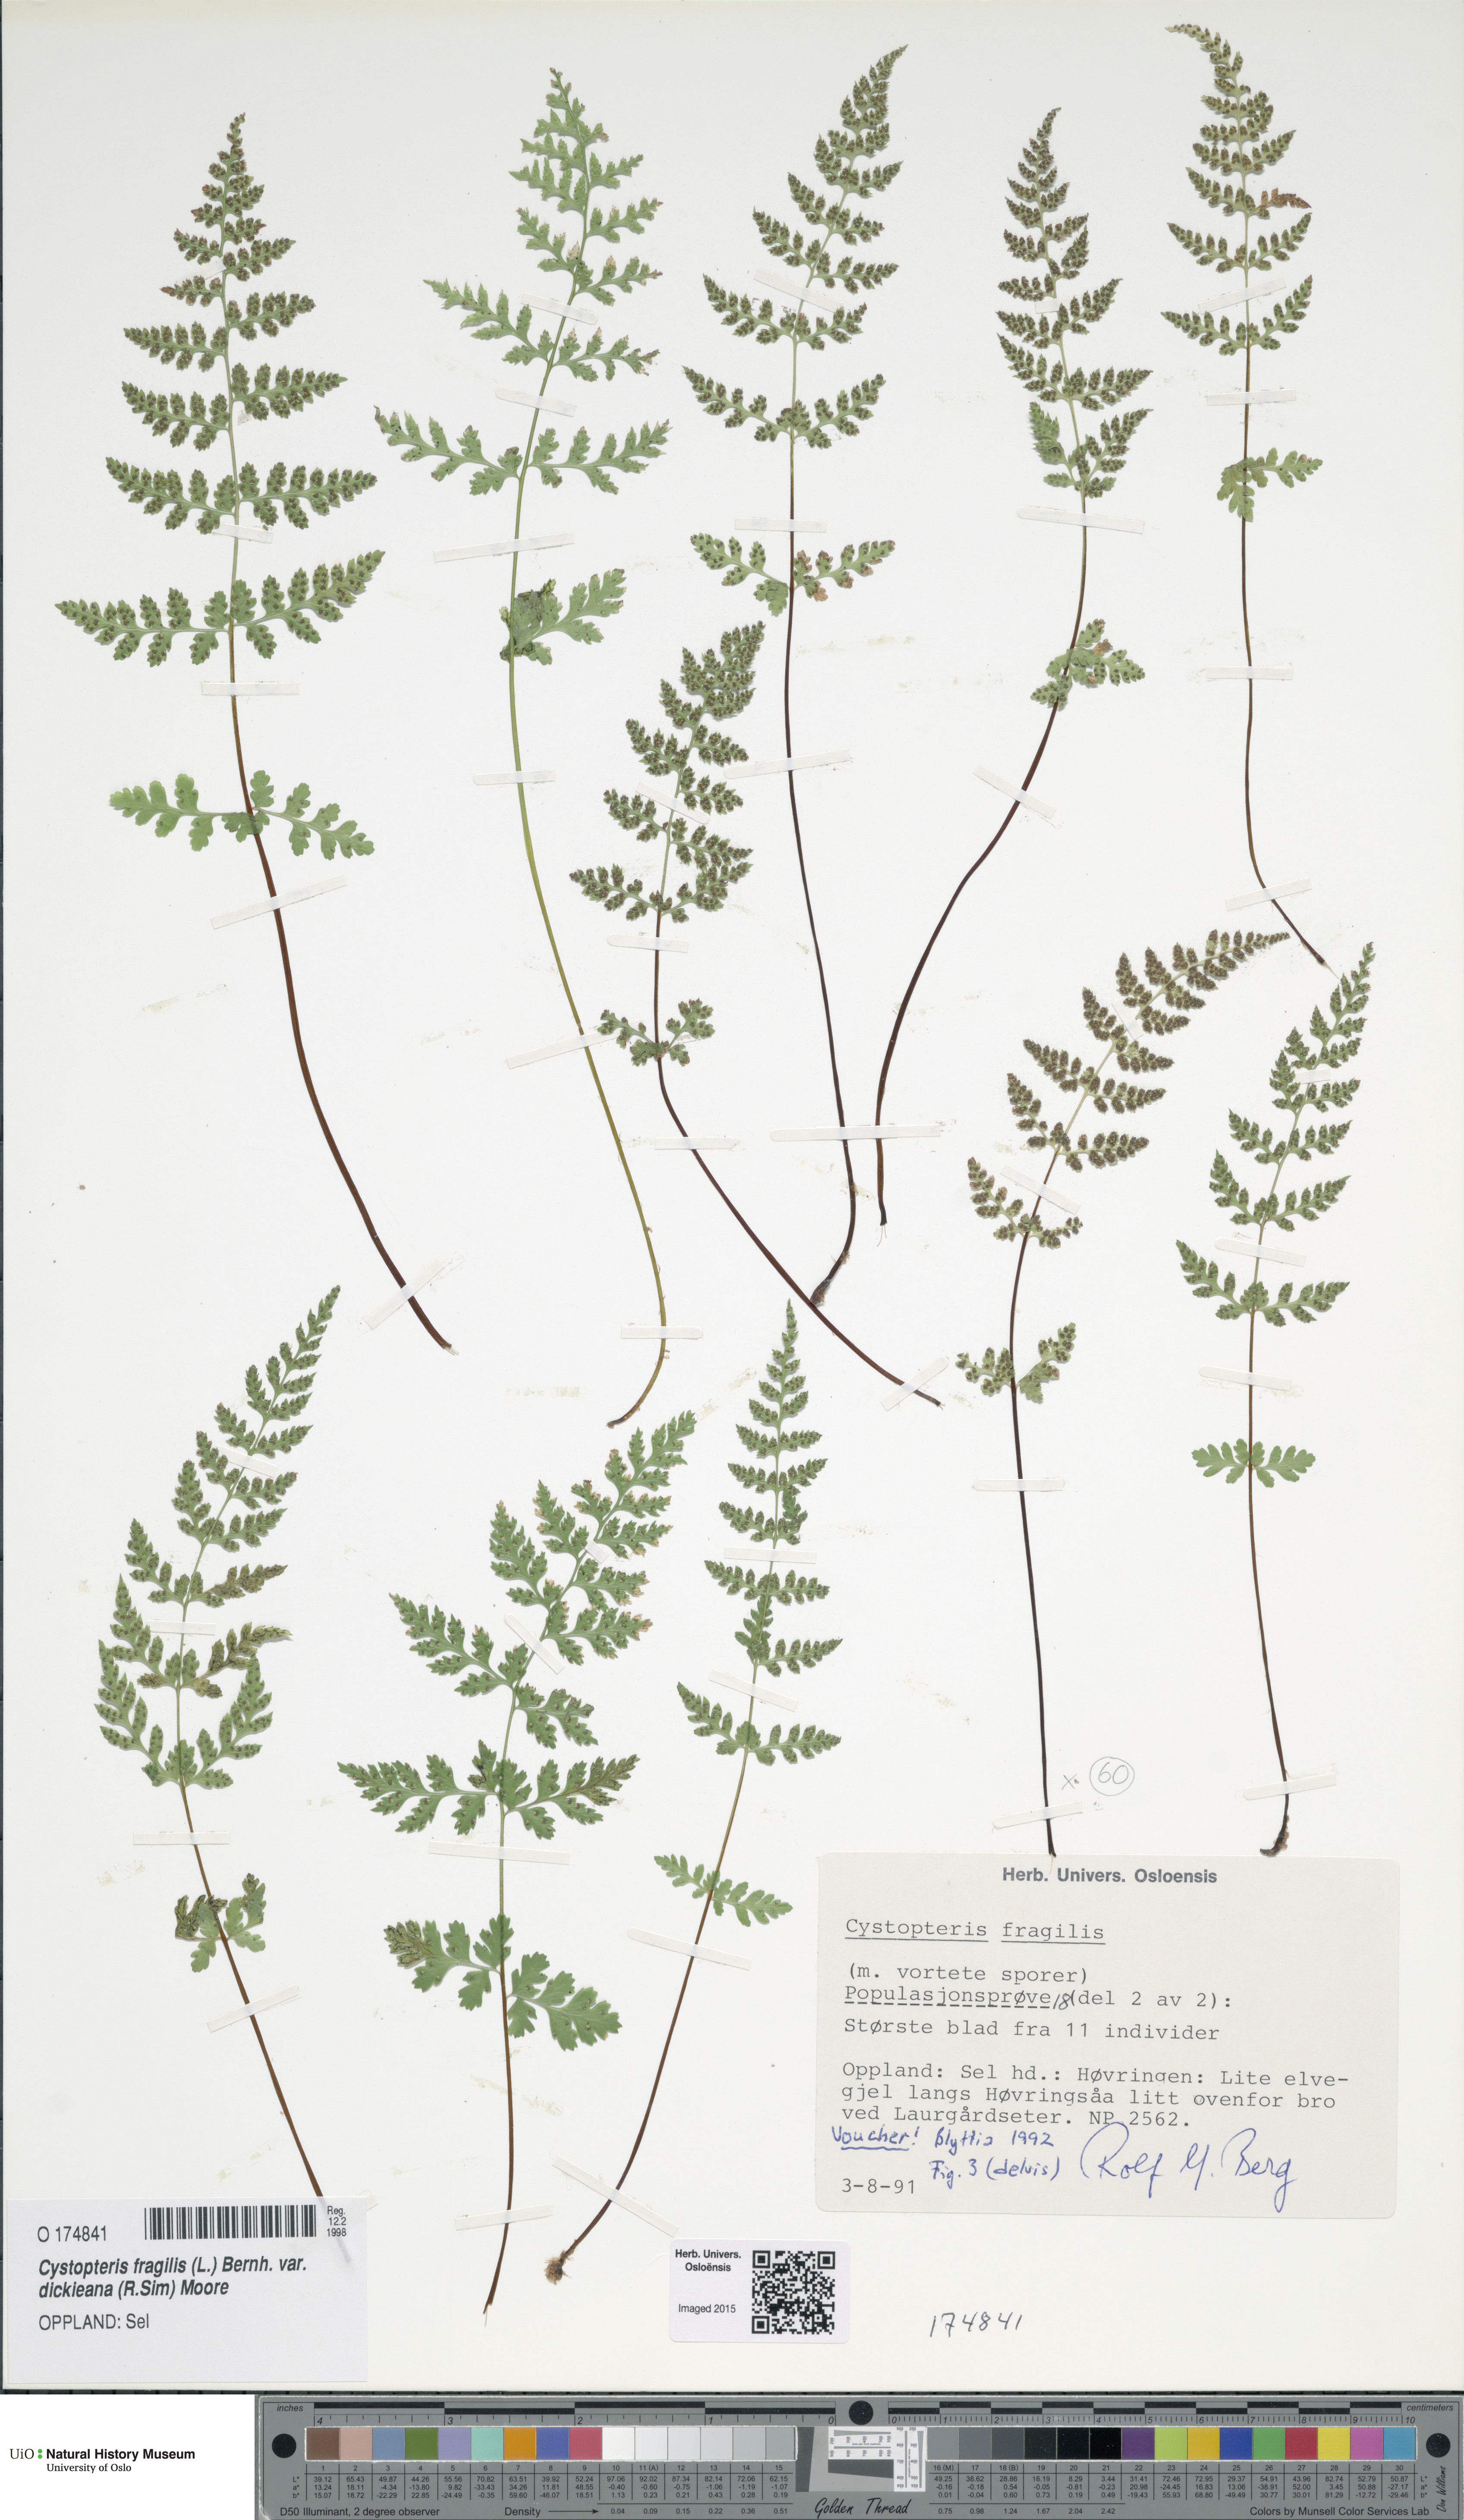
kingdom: Plantae
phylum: Tracheophyta
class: Polypodiopsida
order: Polypodiales
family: Cystopteridaceae
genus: Cystopteris
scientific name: Cystopteris dickieana
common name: Dickie's bladder-fern
